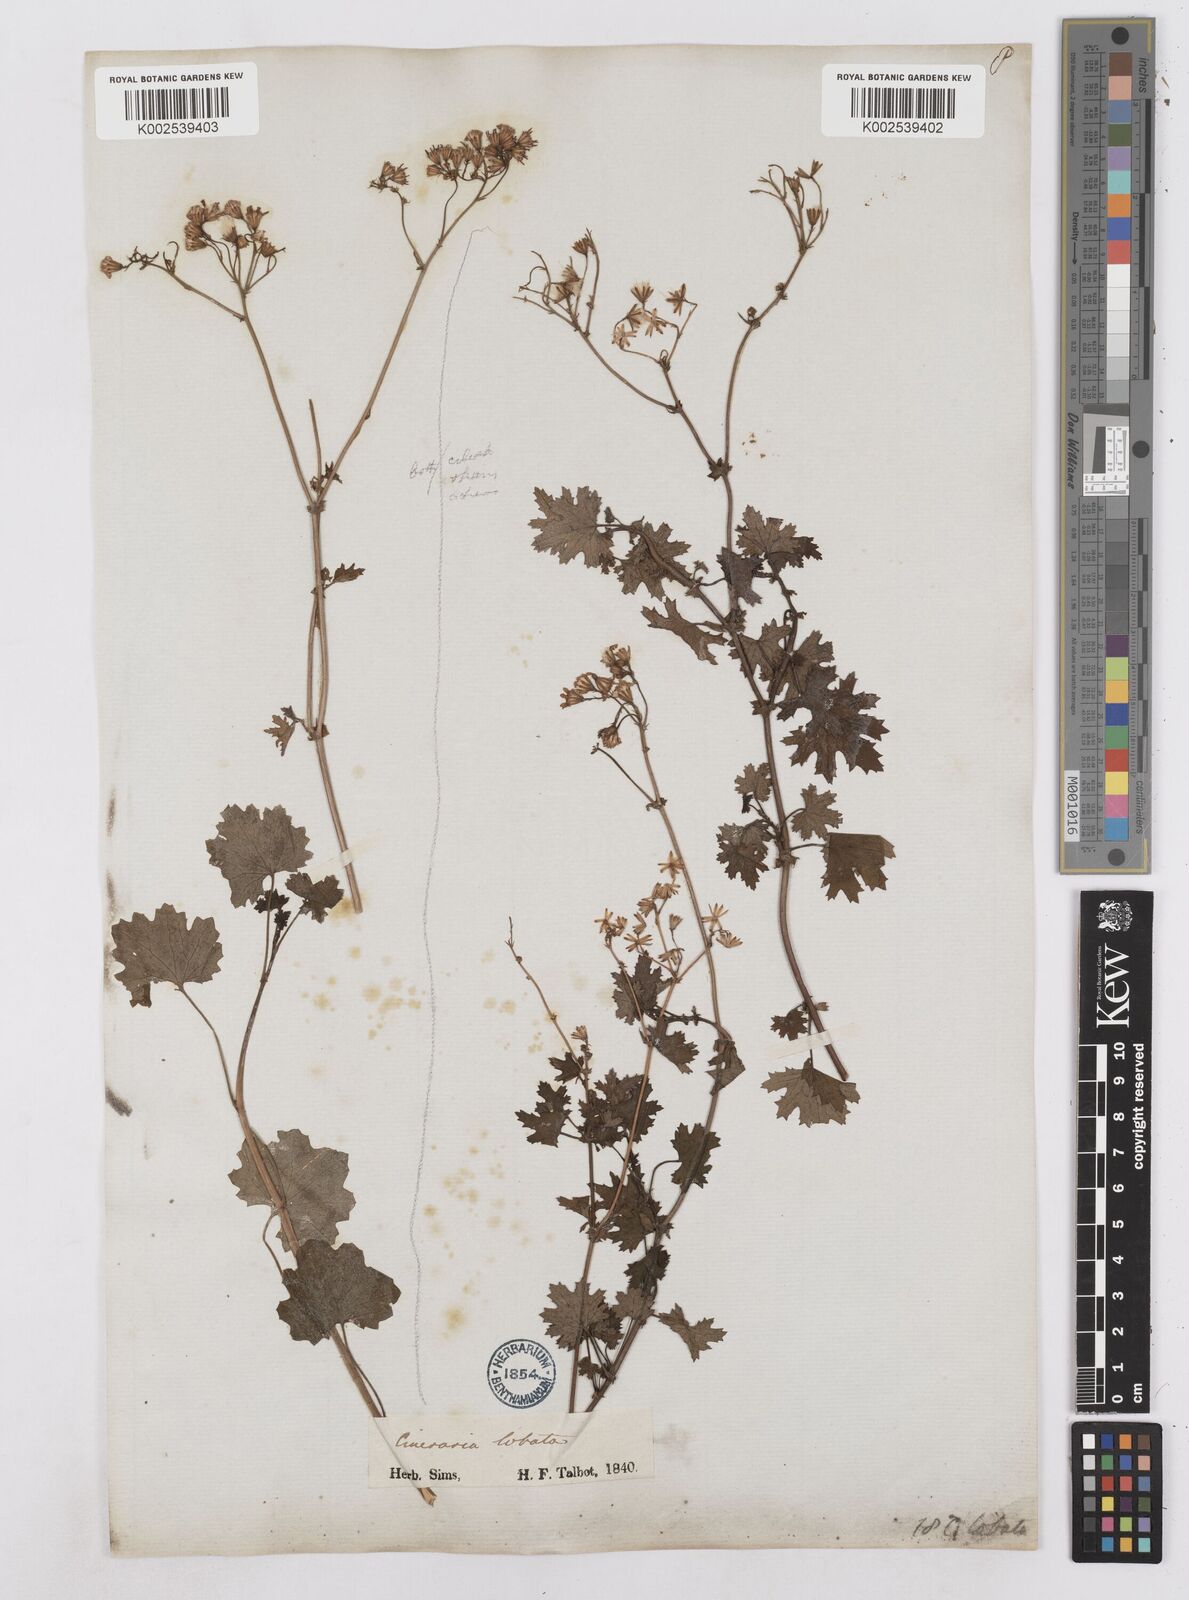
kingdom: Plantae
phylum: Tracheophyta
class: Magnoliopsida
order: Asterales
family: Asteraceae
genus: Cineraria
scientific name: Cineraria
